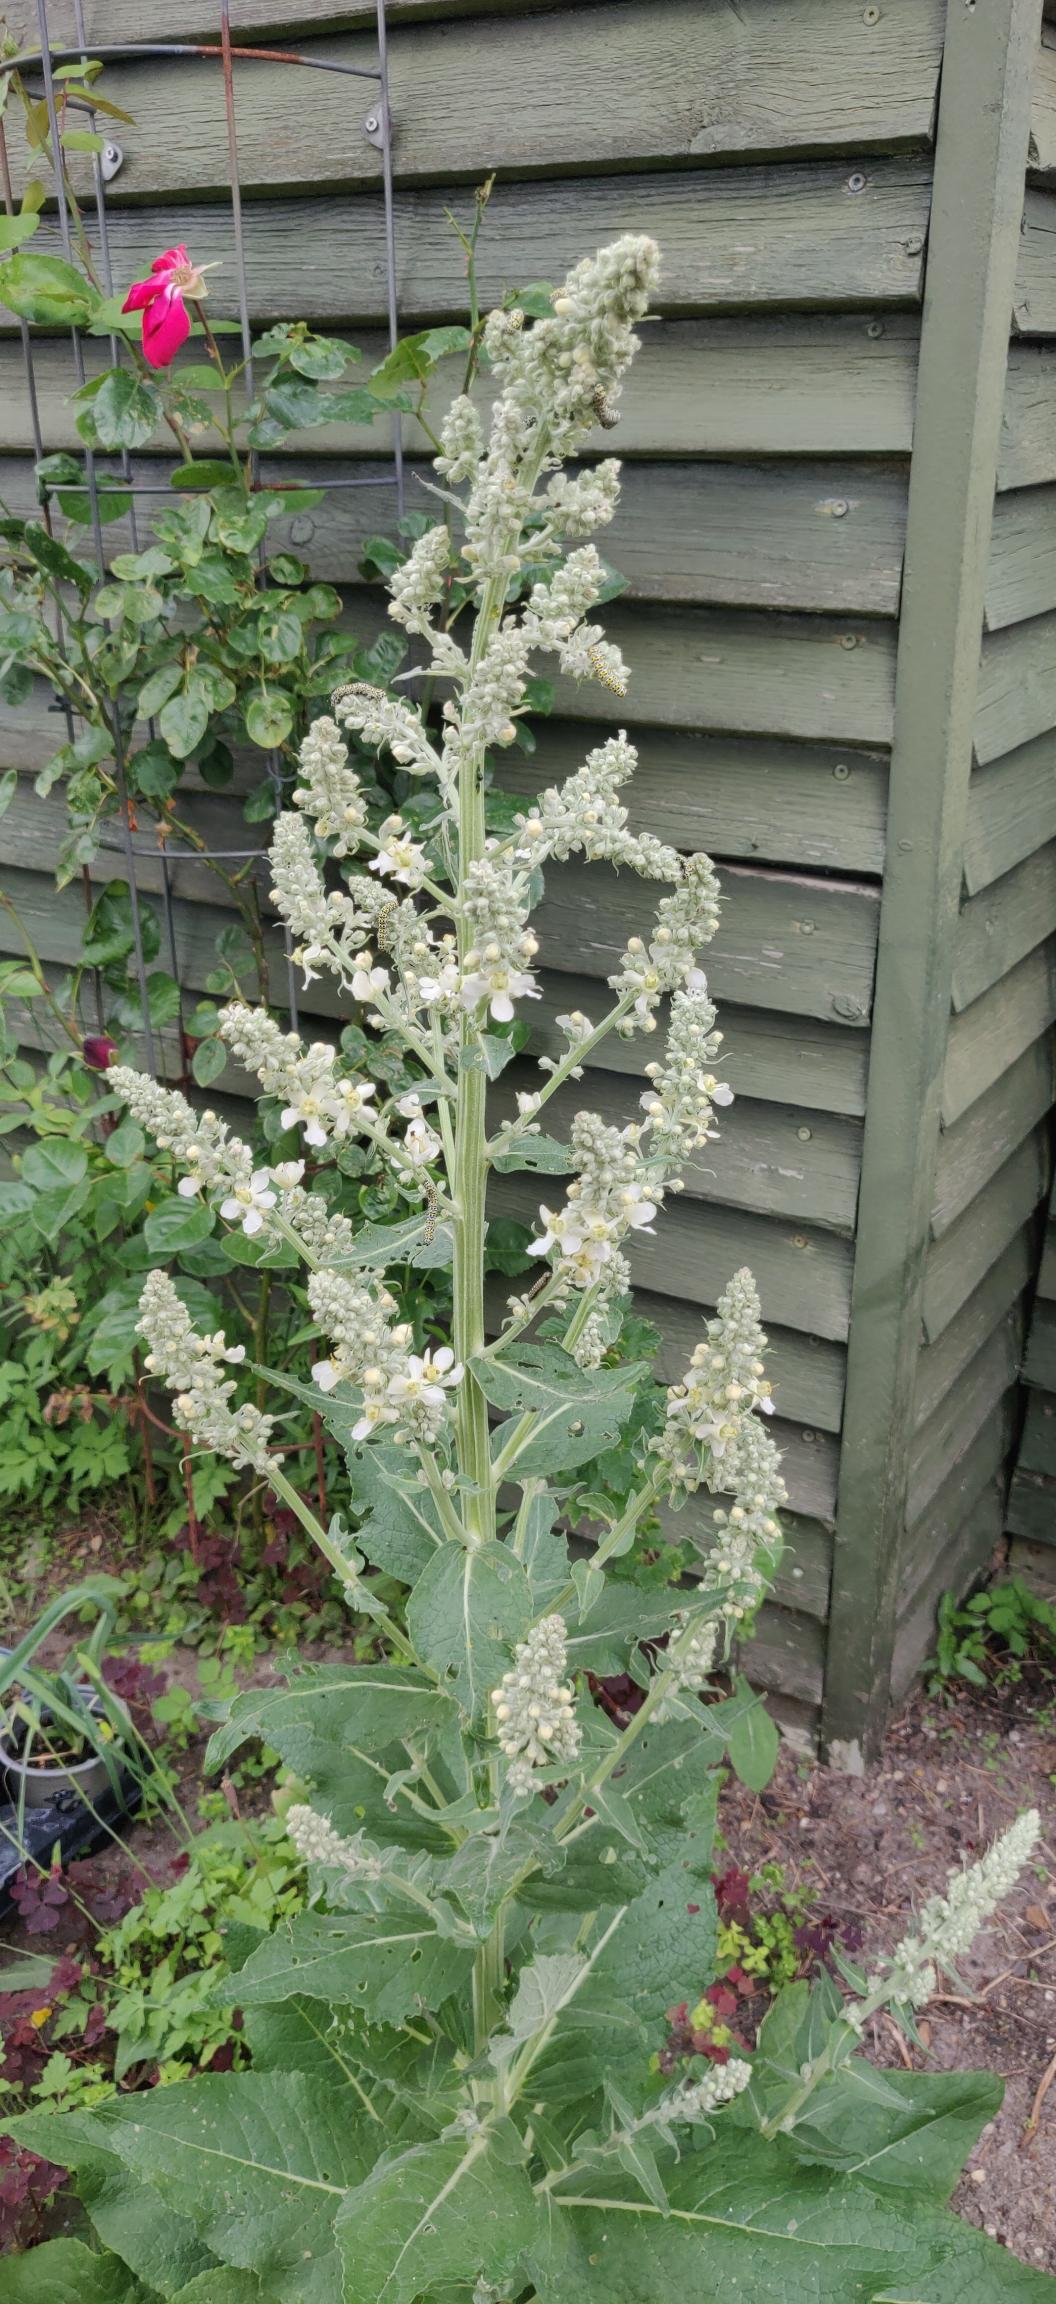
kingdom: Plantae
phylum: Tracheophyta
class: Magnoliopsida
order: Lamiales
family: Scrophulariaceae
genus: Verbascum
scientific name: Verbascum lychnitis
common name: Bleg kongelys
